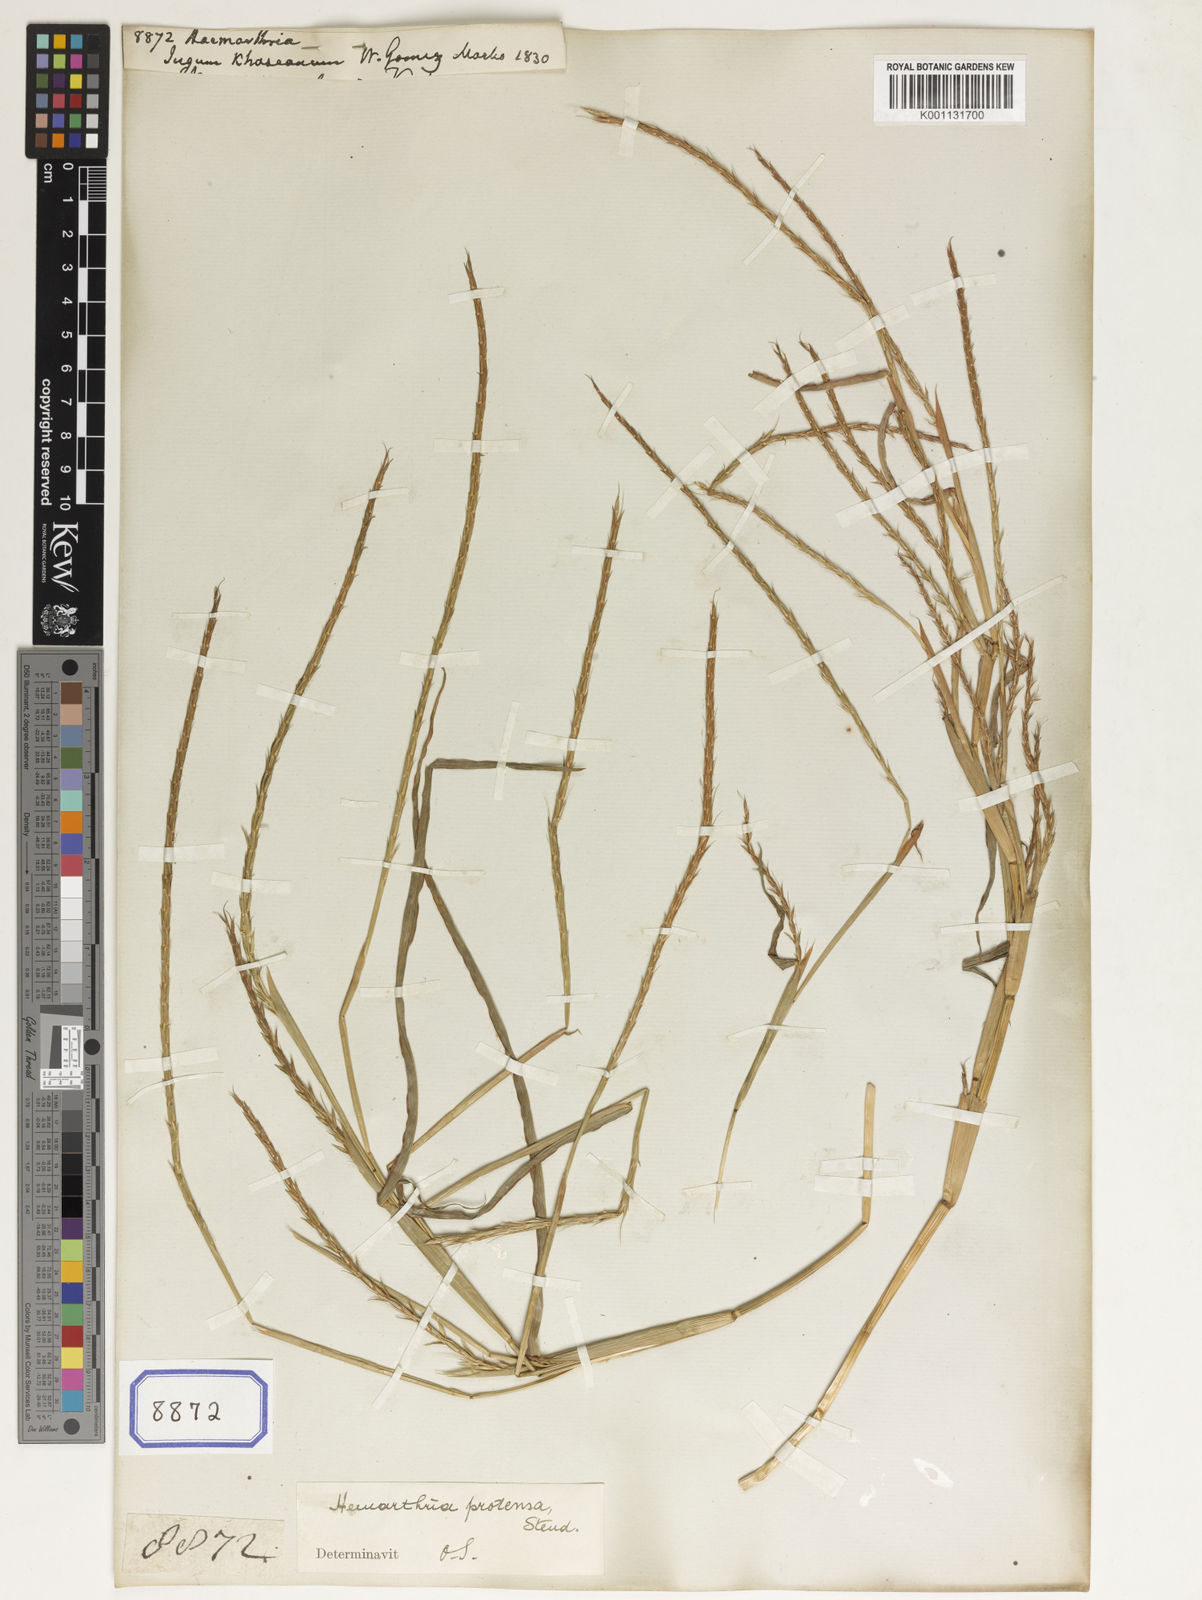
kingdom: Plantae
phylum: Tracheophyta
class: Liliopsida
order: Poales
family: Poaceae
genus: Hemarthria
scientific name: Hemarthria
